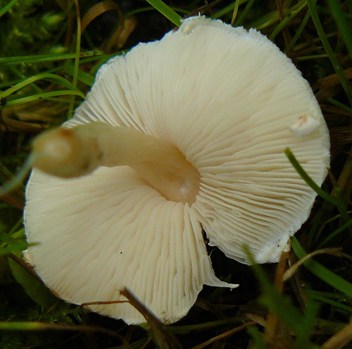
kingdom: Fungi
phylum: Basidiomycota
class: Agaricomycetes
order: Agaricales
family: Agaricaceae
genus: Lepiota
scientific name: Lepiota cristata
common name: stinkende parasolhat
